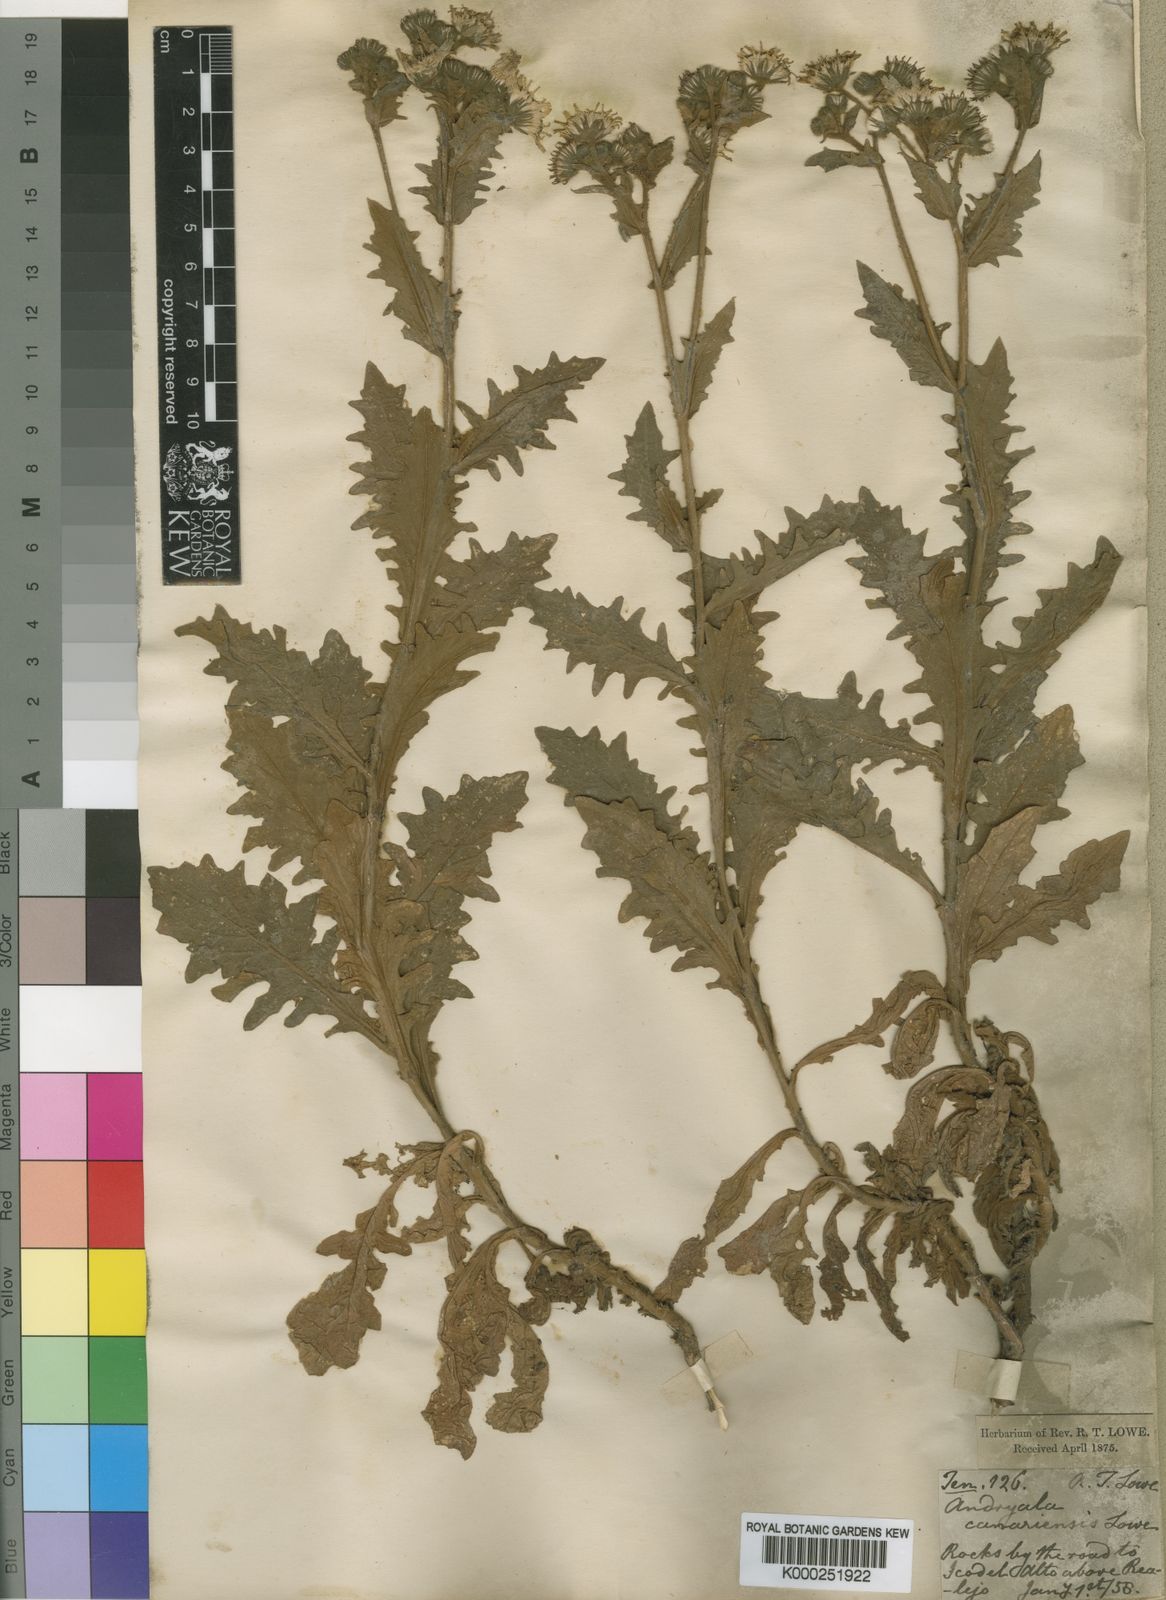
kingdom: Plantae
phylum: Tracheophyta
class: Magnoliopsida
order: Asterales
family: Asteraceae
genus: Crepis
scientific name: Crepis
